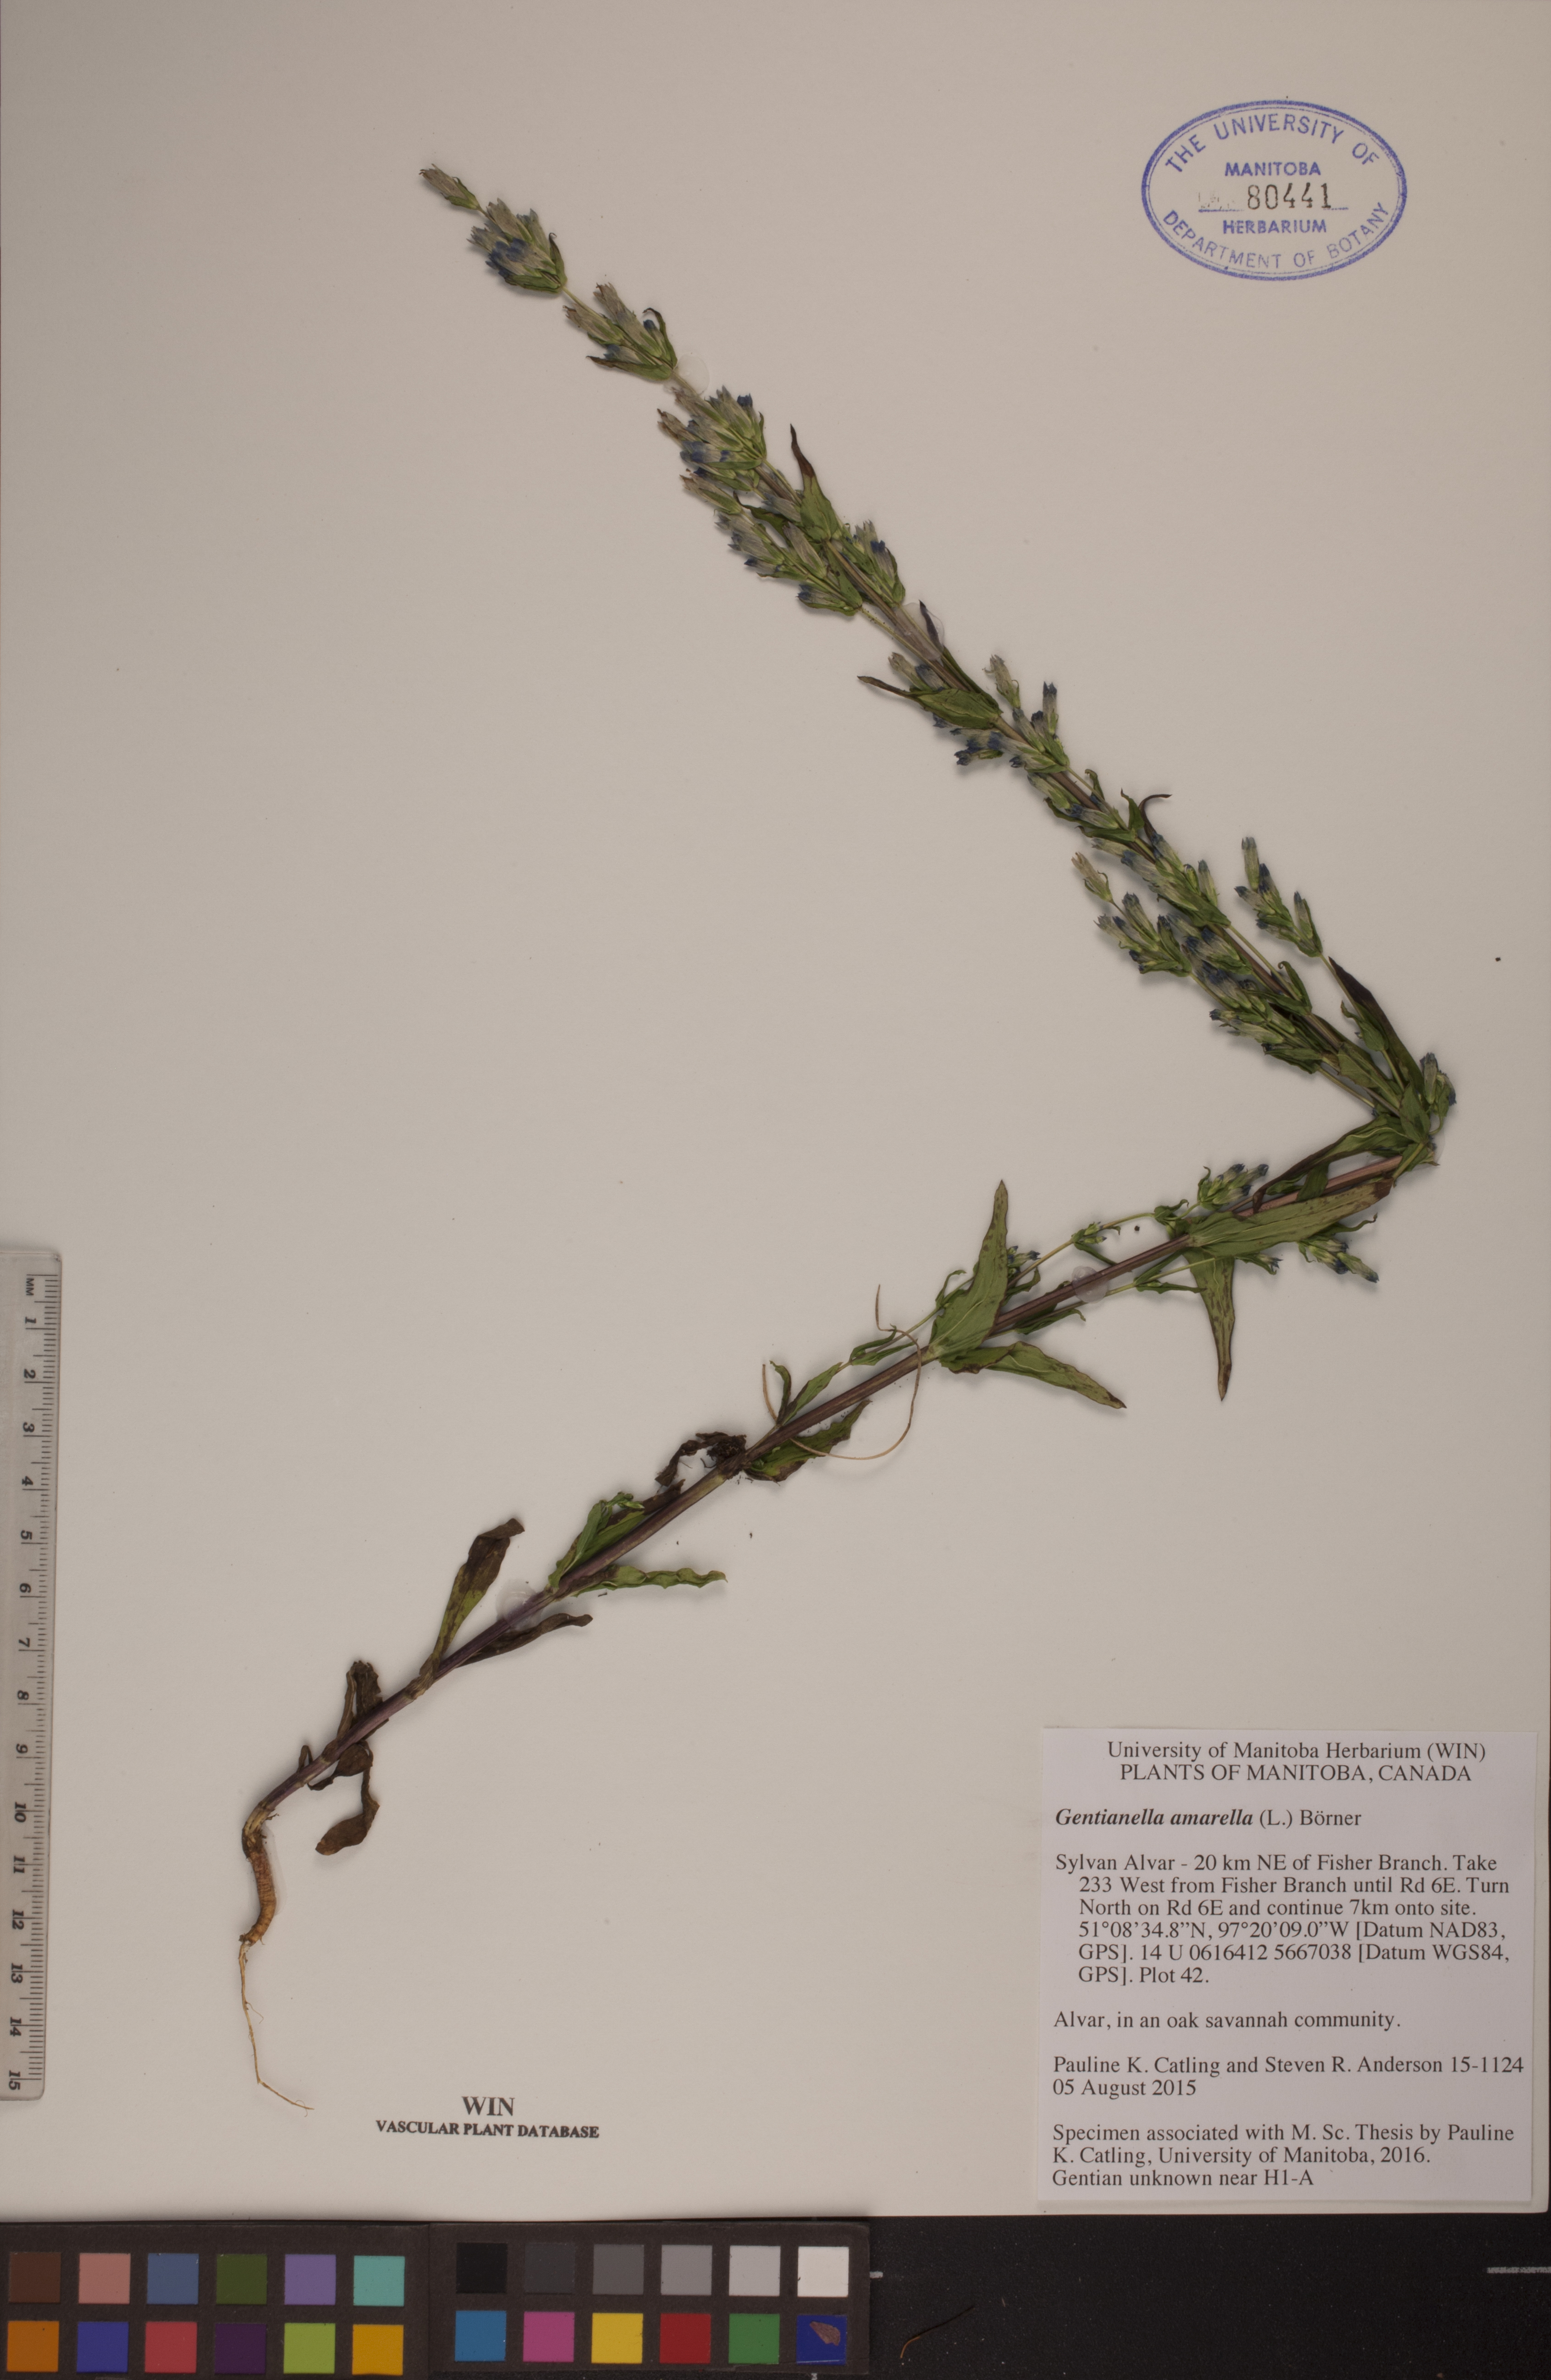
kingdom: Plantae
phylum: Tracheophyta
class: Magnoliopsida
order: Gentianales
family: Gentianaceae
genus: Gentianella
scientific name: Gentianella amarella
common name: Autumn gentian
